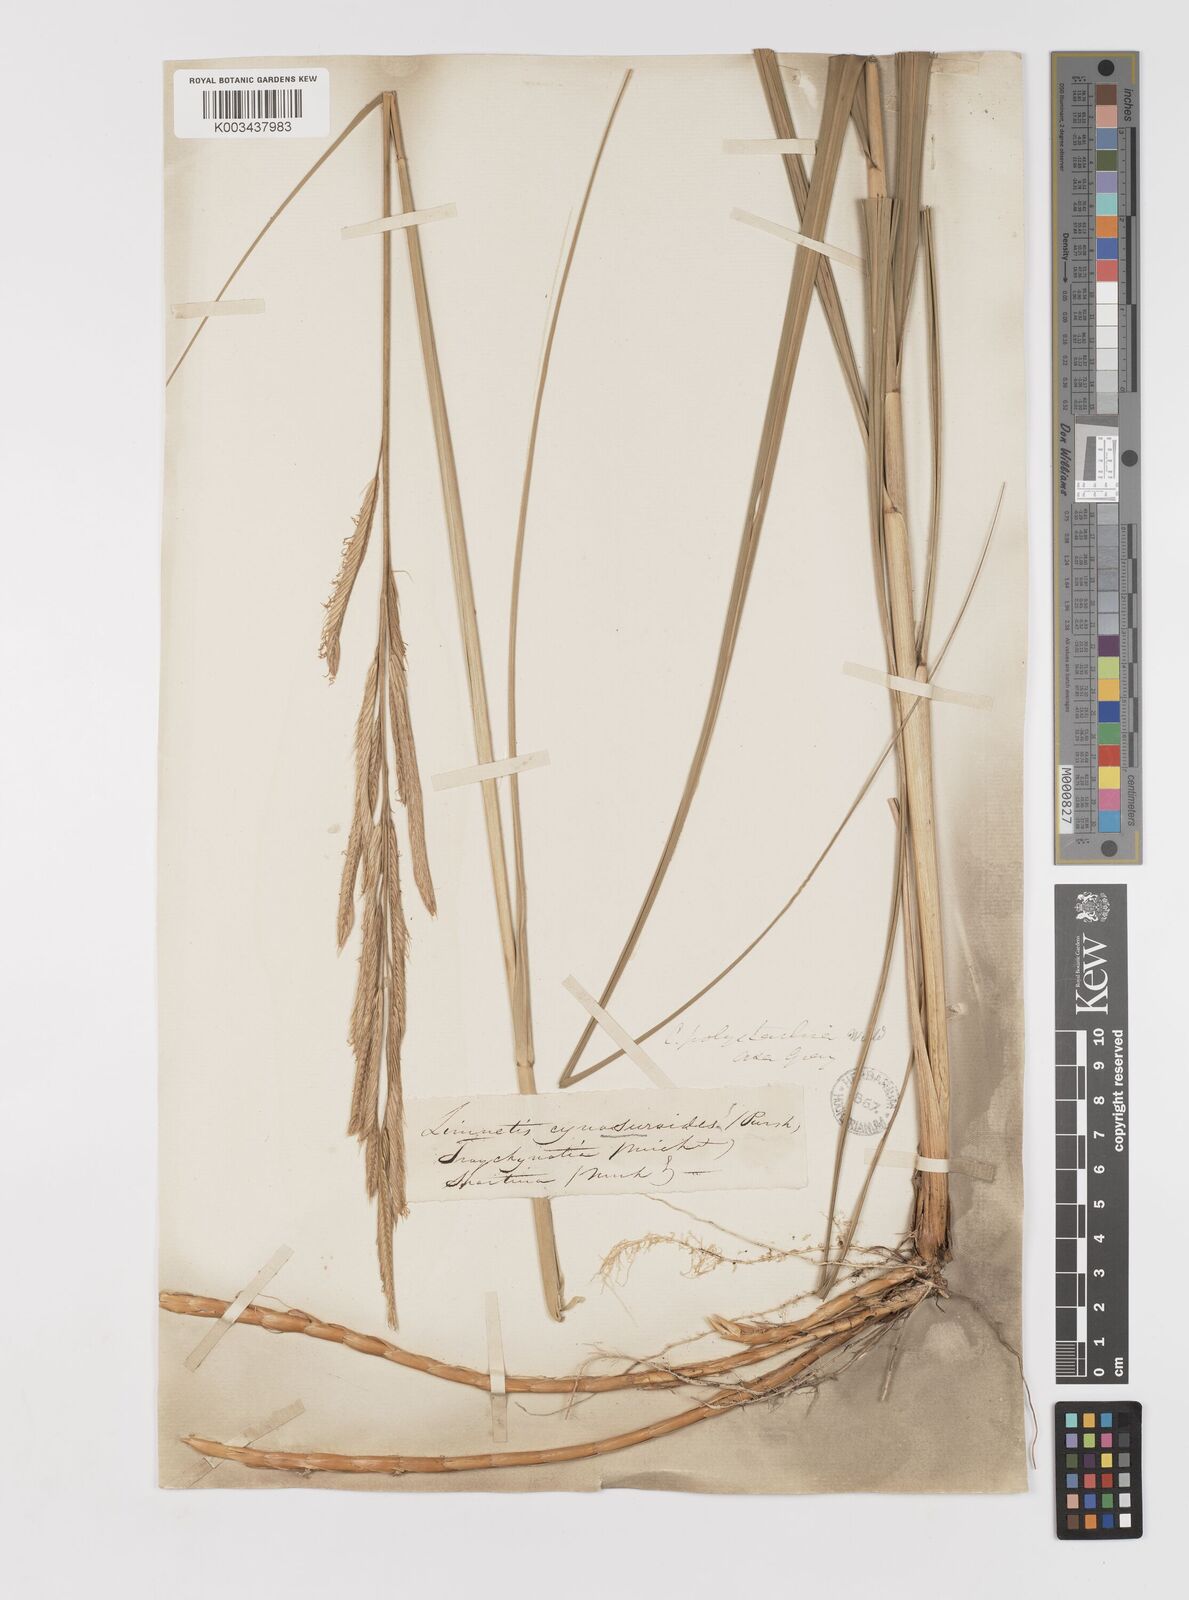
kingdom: Plantae
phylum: Tracheophyta
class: Liliopsida
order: Poales
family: Poaceae
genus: Sporobolus
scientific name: Sporobolus michauxianus
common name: Freshwater cordgrass
